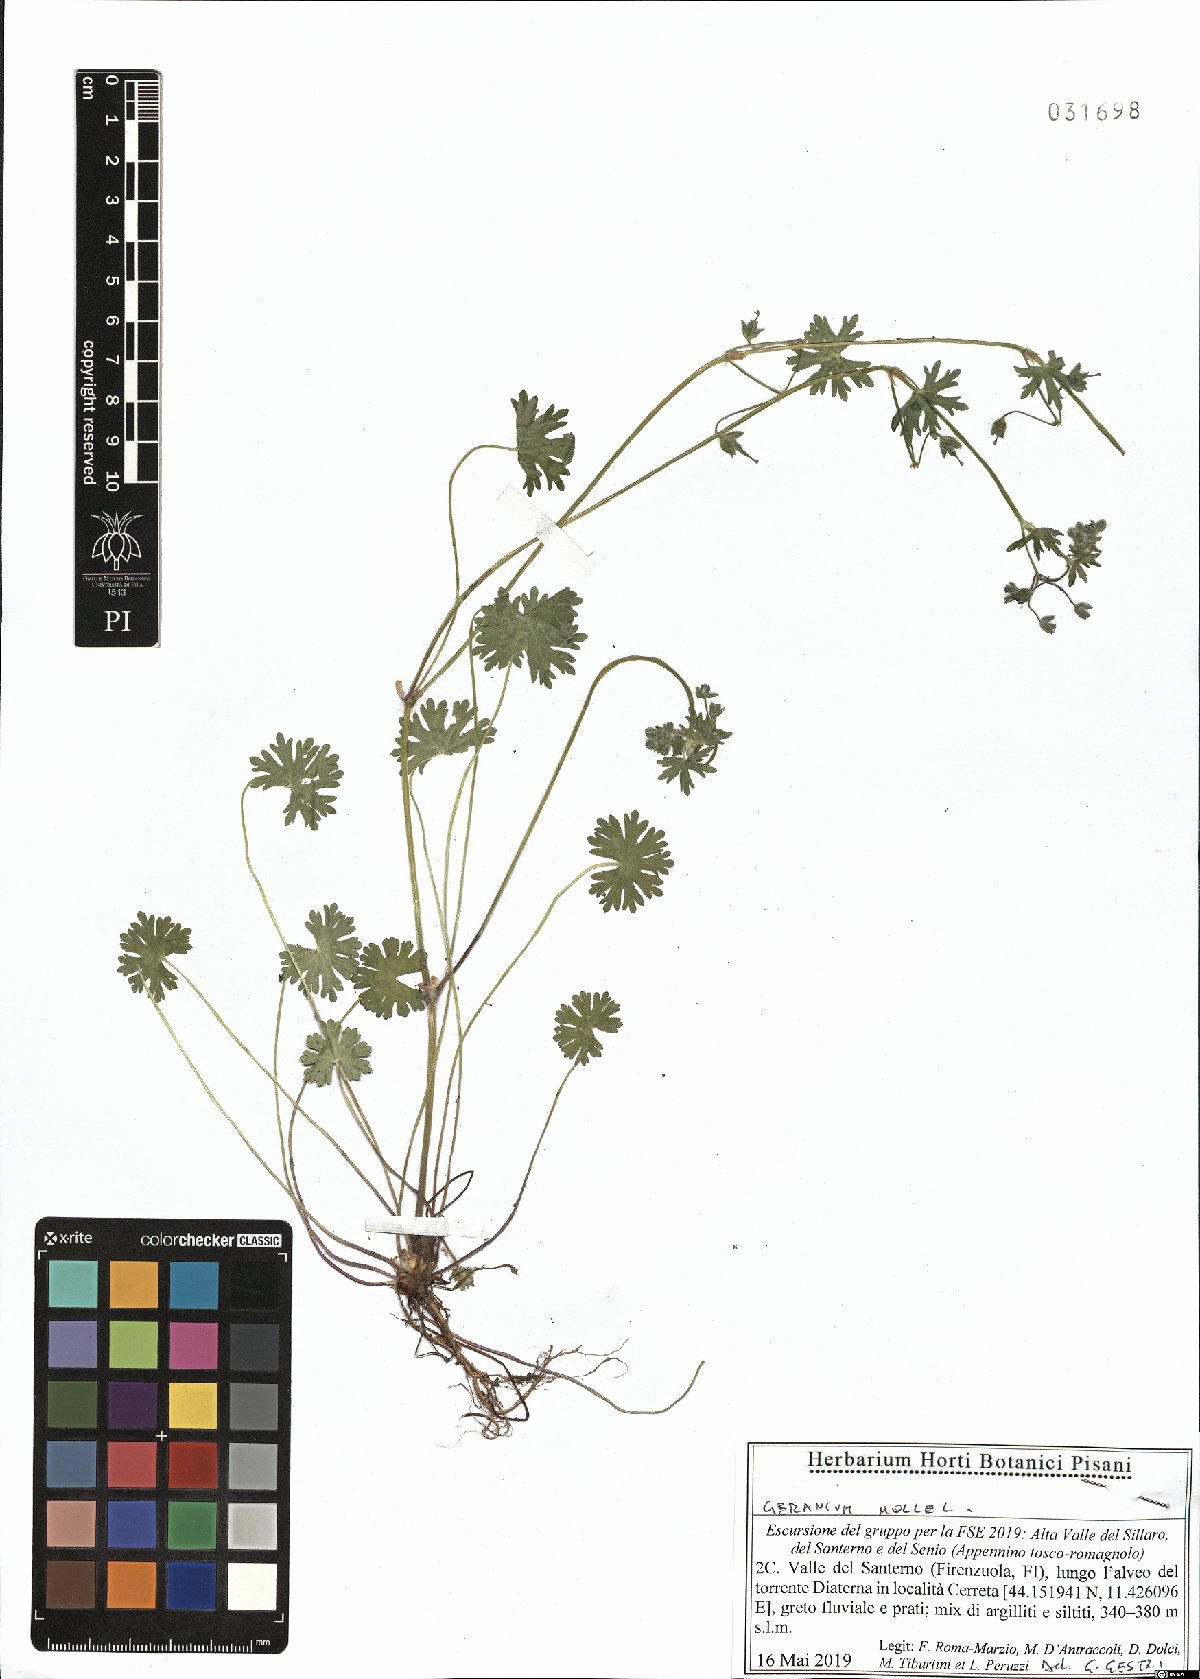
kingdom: Plantae
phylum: Tracheophyta
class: Magnoliopsida
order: Geraniales
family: Geraniaceae
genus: Geranium
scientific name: Geranium molle
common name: Dove's-foot crane's-bill
